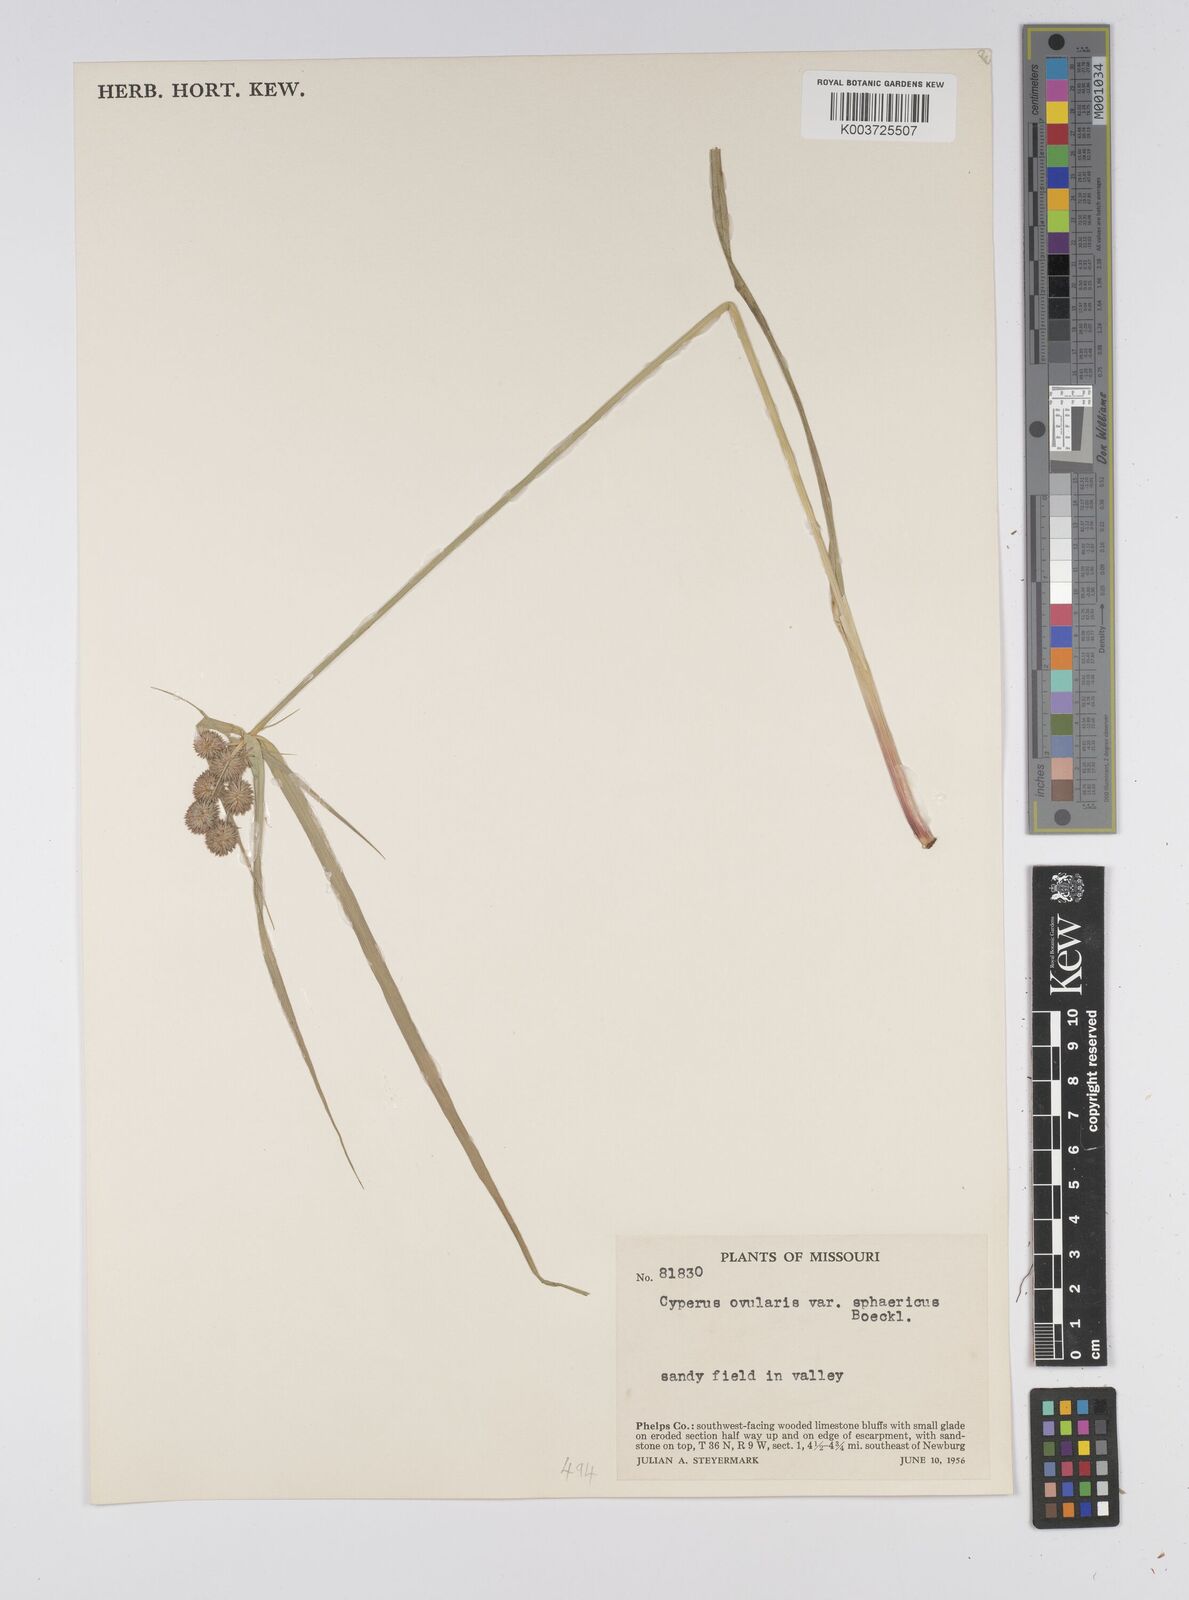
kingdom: Plantae
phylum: Tracheophyta
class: Liliopsida
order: Poales
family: Cyperaceae
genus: Cyperus
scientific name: Cyperus echinatus
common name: Teasel sedge
